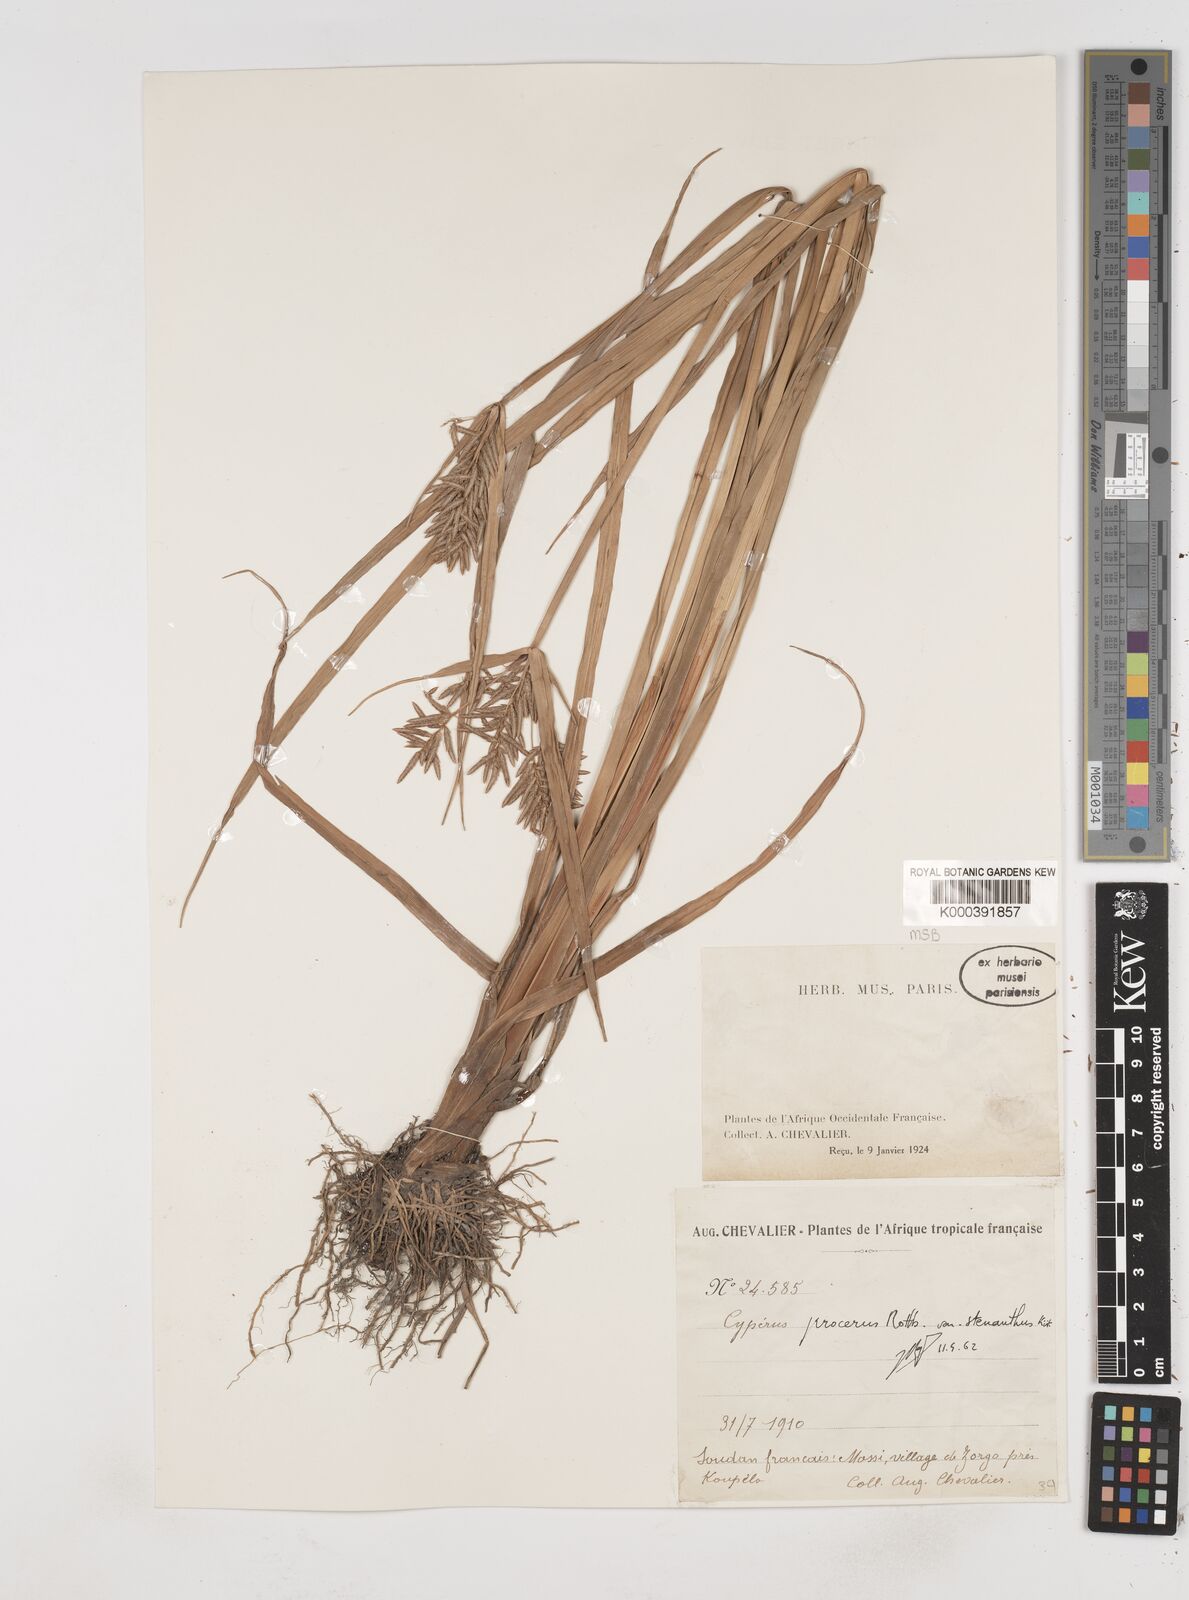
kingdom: Plantae
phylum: Tracheophyta
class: Liliopsida
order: Poales
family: Cyperaceae
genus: Cyperus
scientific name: Cyperus procerus
